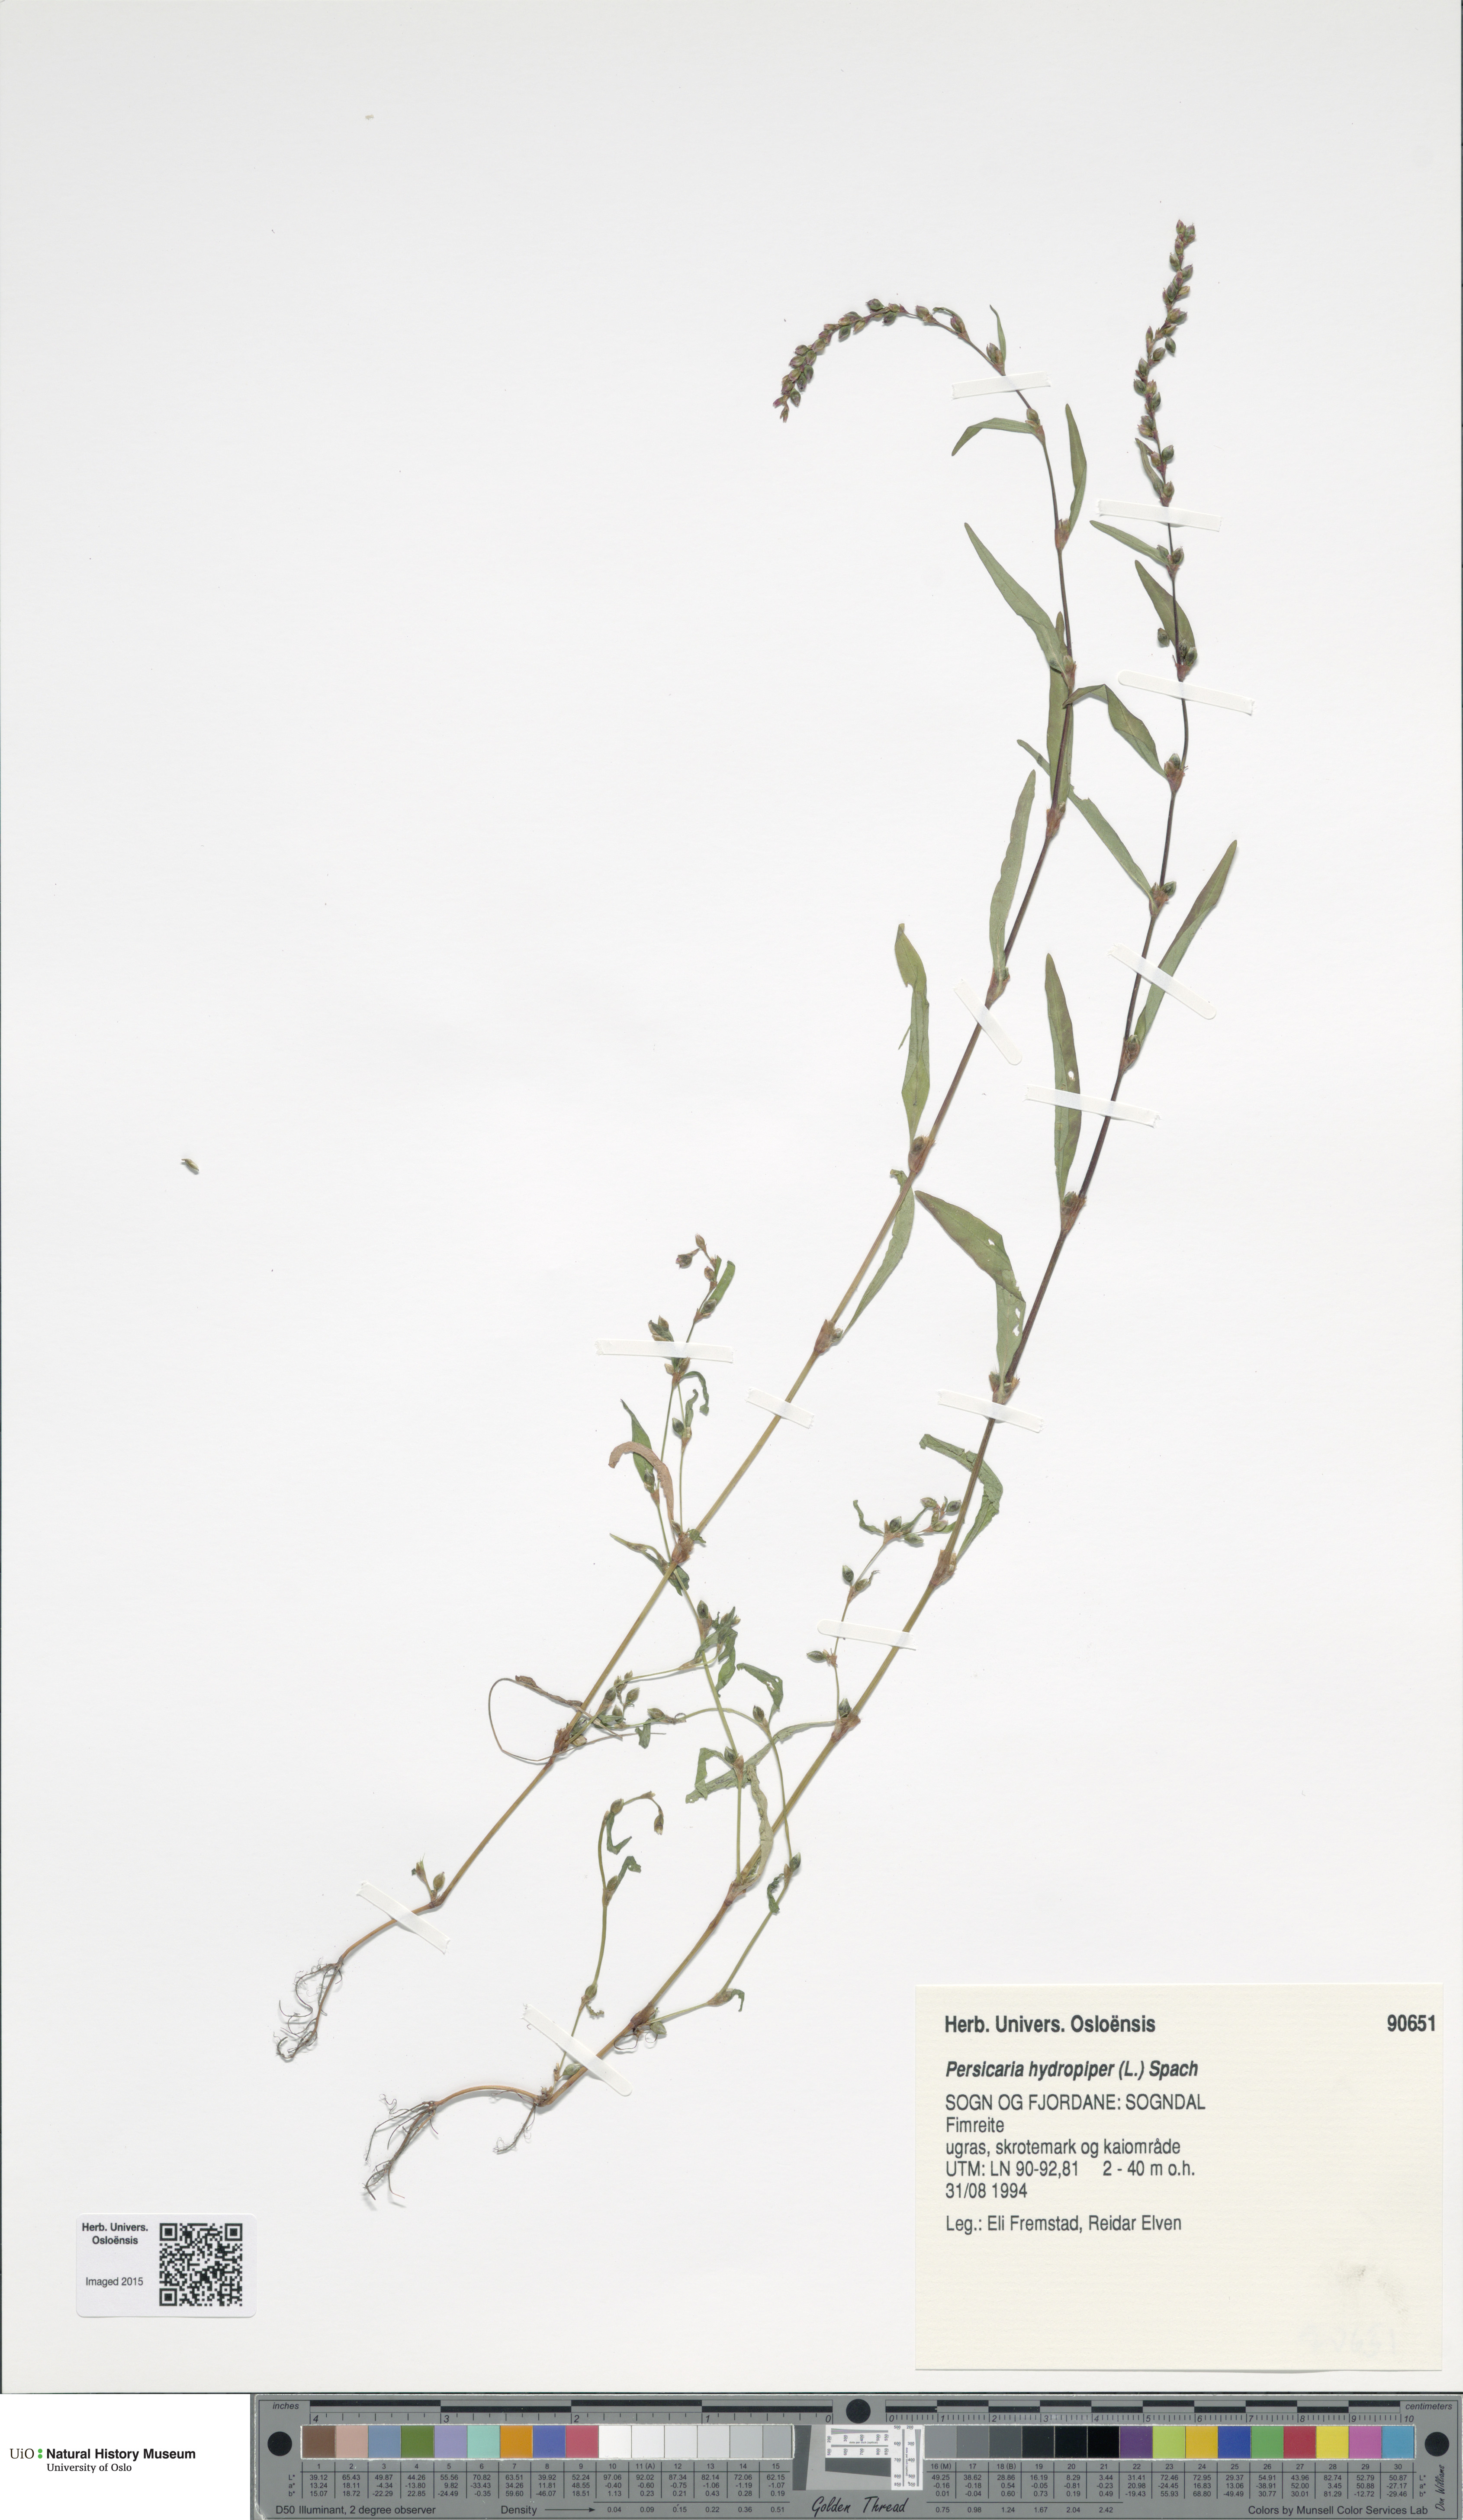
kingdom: Plantae
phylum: Tracheophyta
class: Magnoliopsida
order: Caryophyllales
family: Polygonaceae
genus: Persicaria
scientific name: Persicaria hydropiper
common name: Water-pepper
